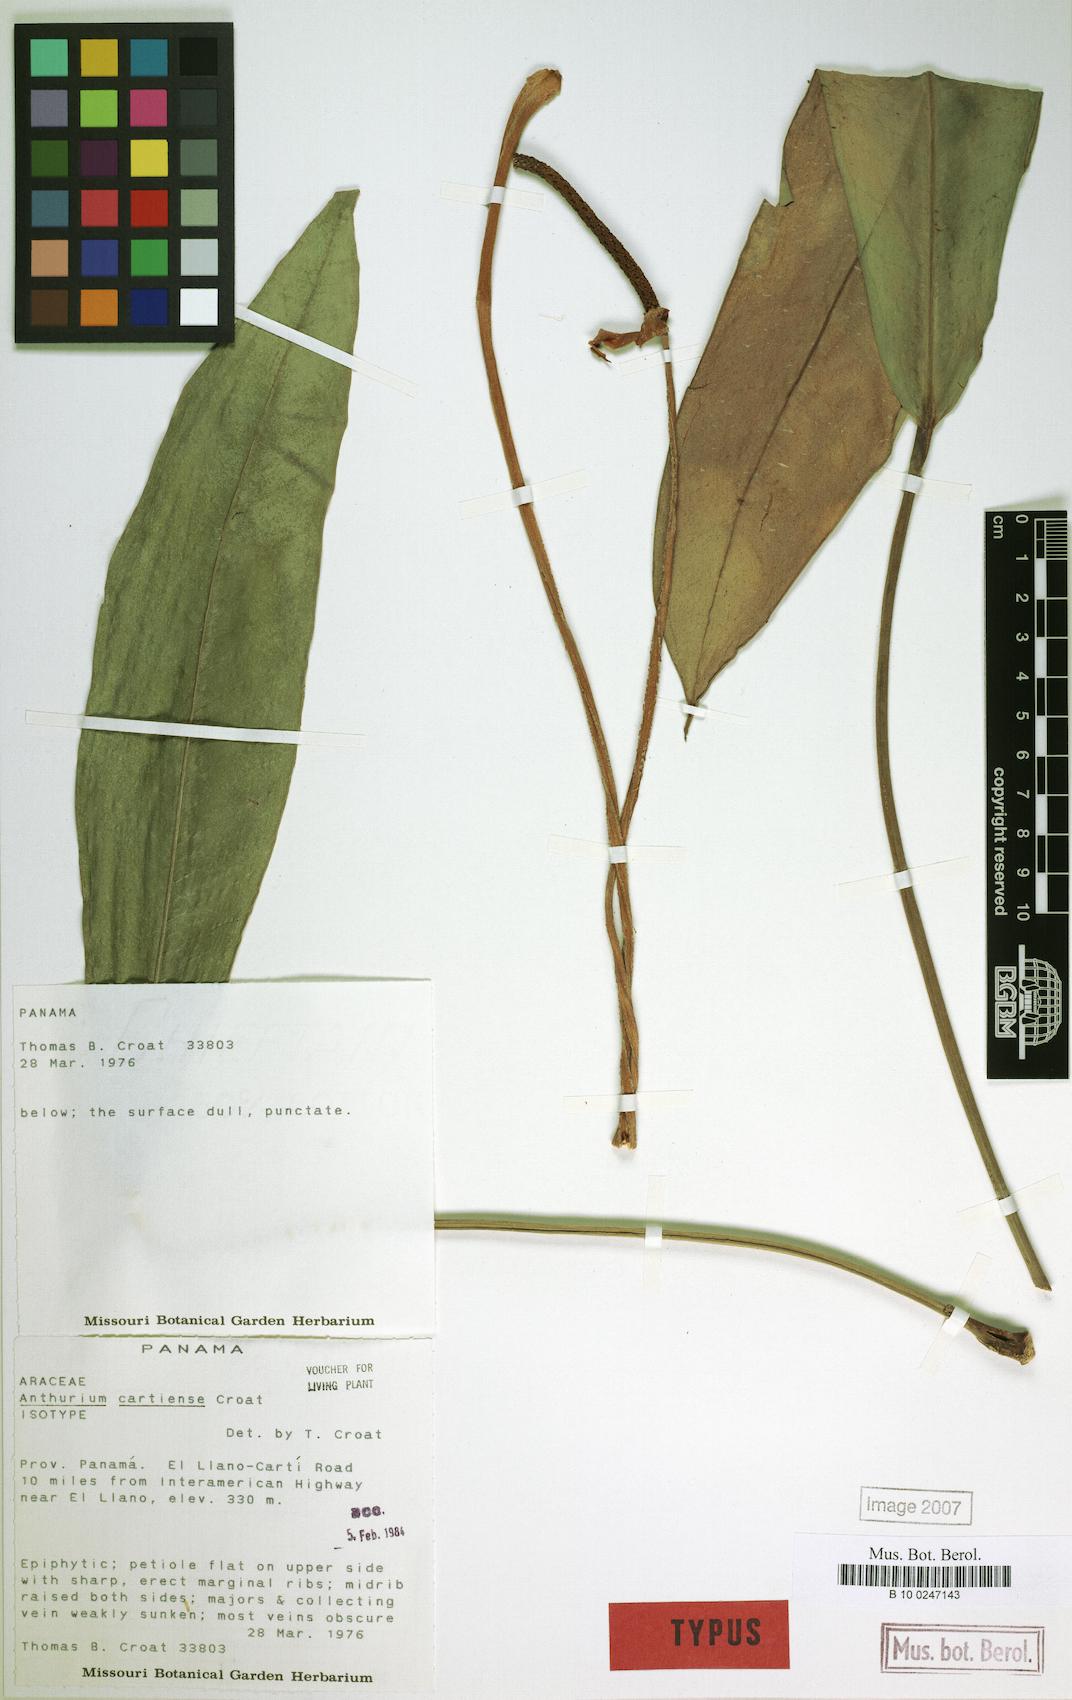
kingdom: Plantae
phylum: Tracheophyta
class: Liliopsida
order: Alismatales
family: Araceae
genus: Anthurium
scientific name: Anthurium cartiense
